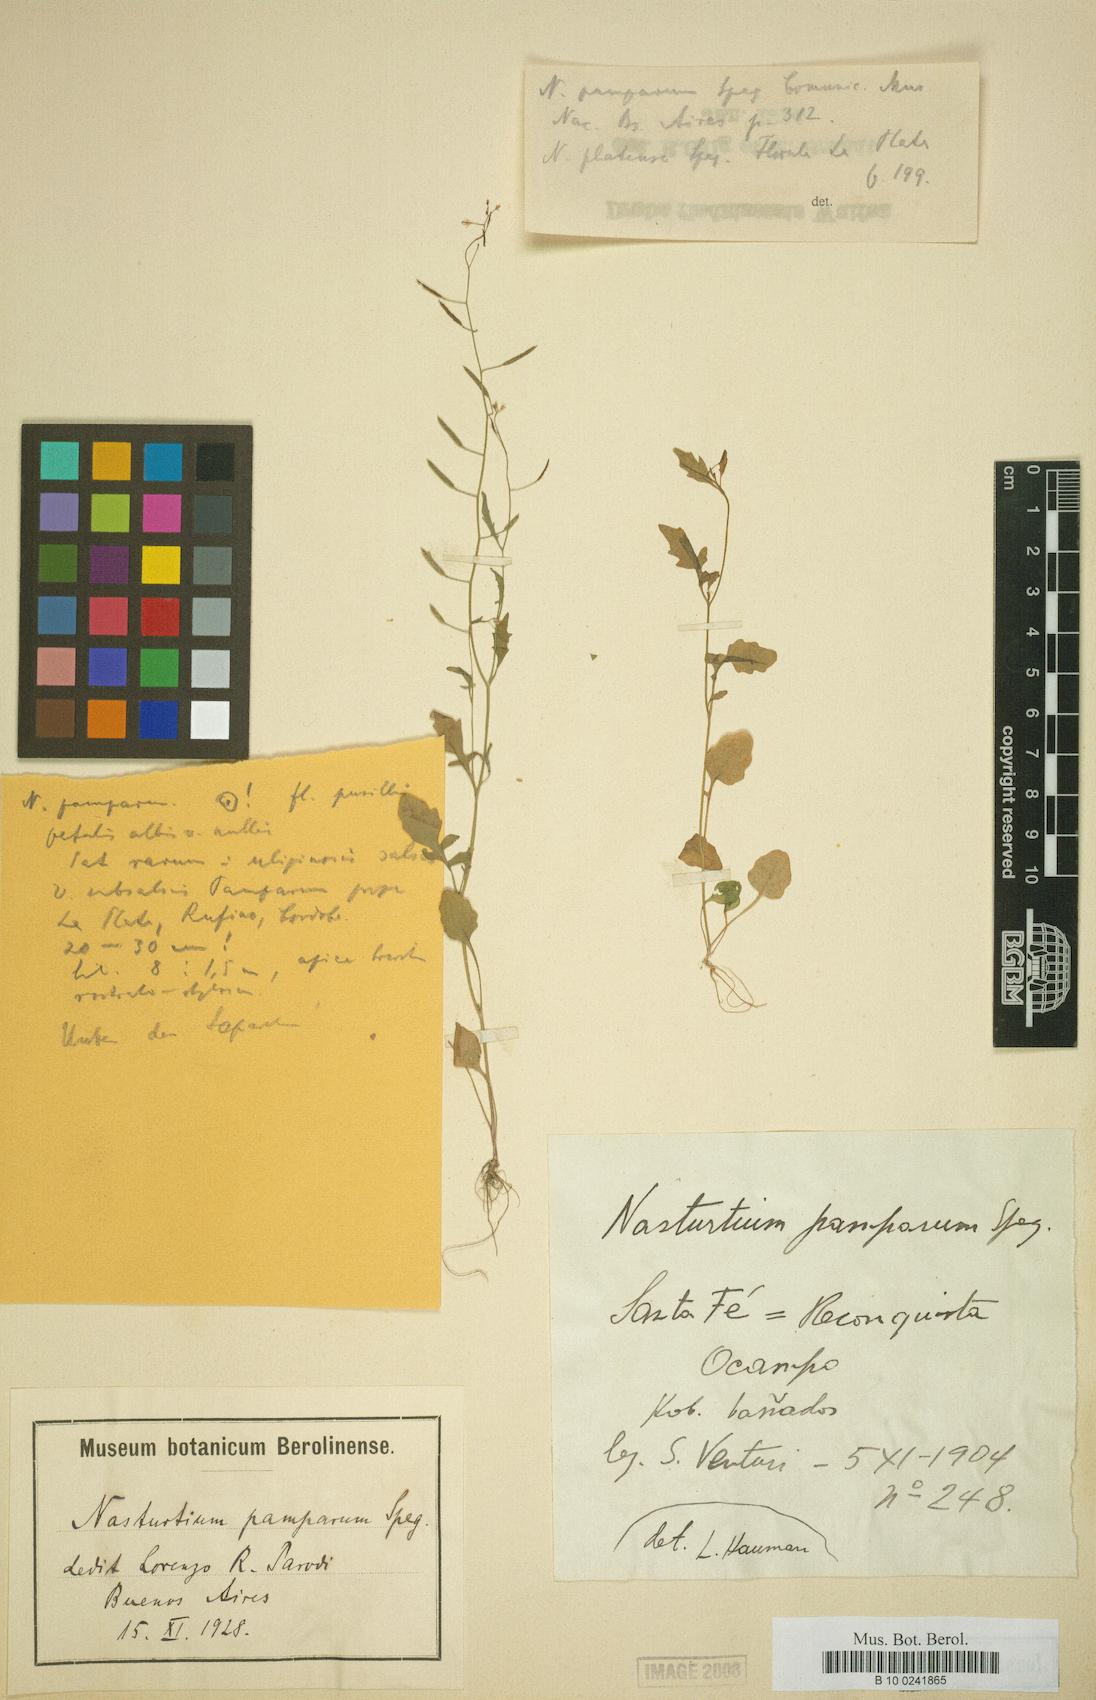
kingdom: Plantae
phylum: Tracheophyta
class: Magnoliopsida
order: Brassicales
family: Brassicaceae
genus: Rorippa
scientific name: Rorippa bonariensis
